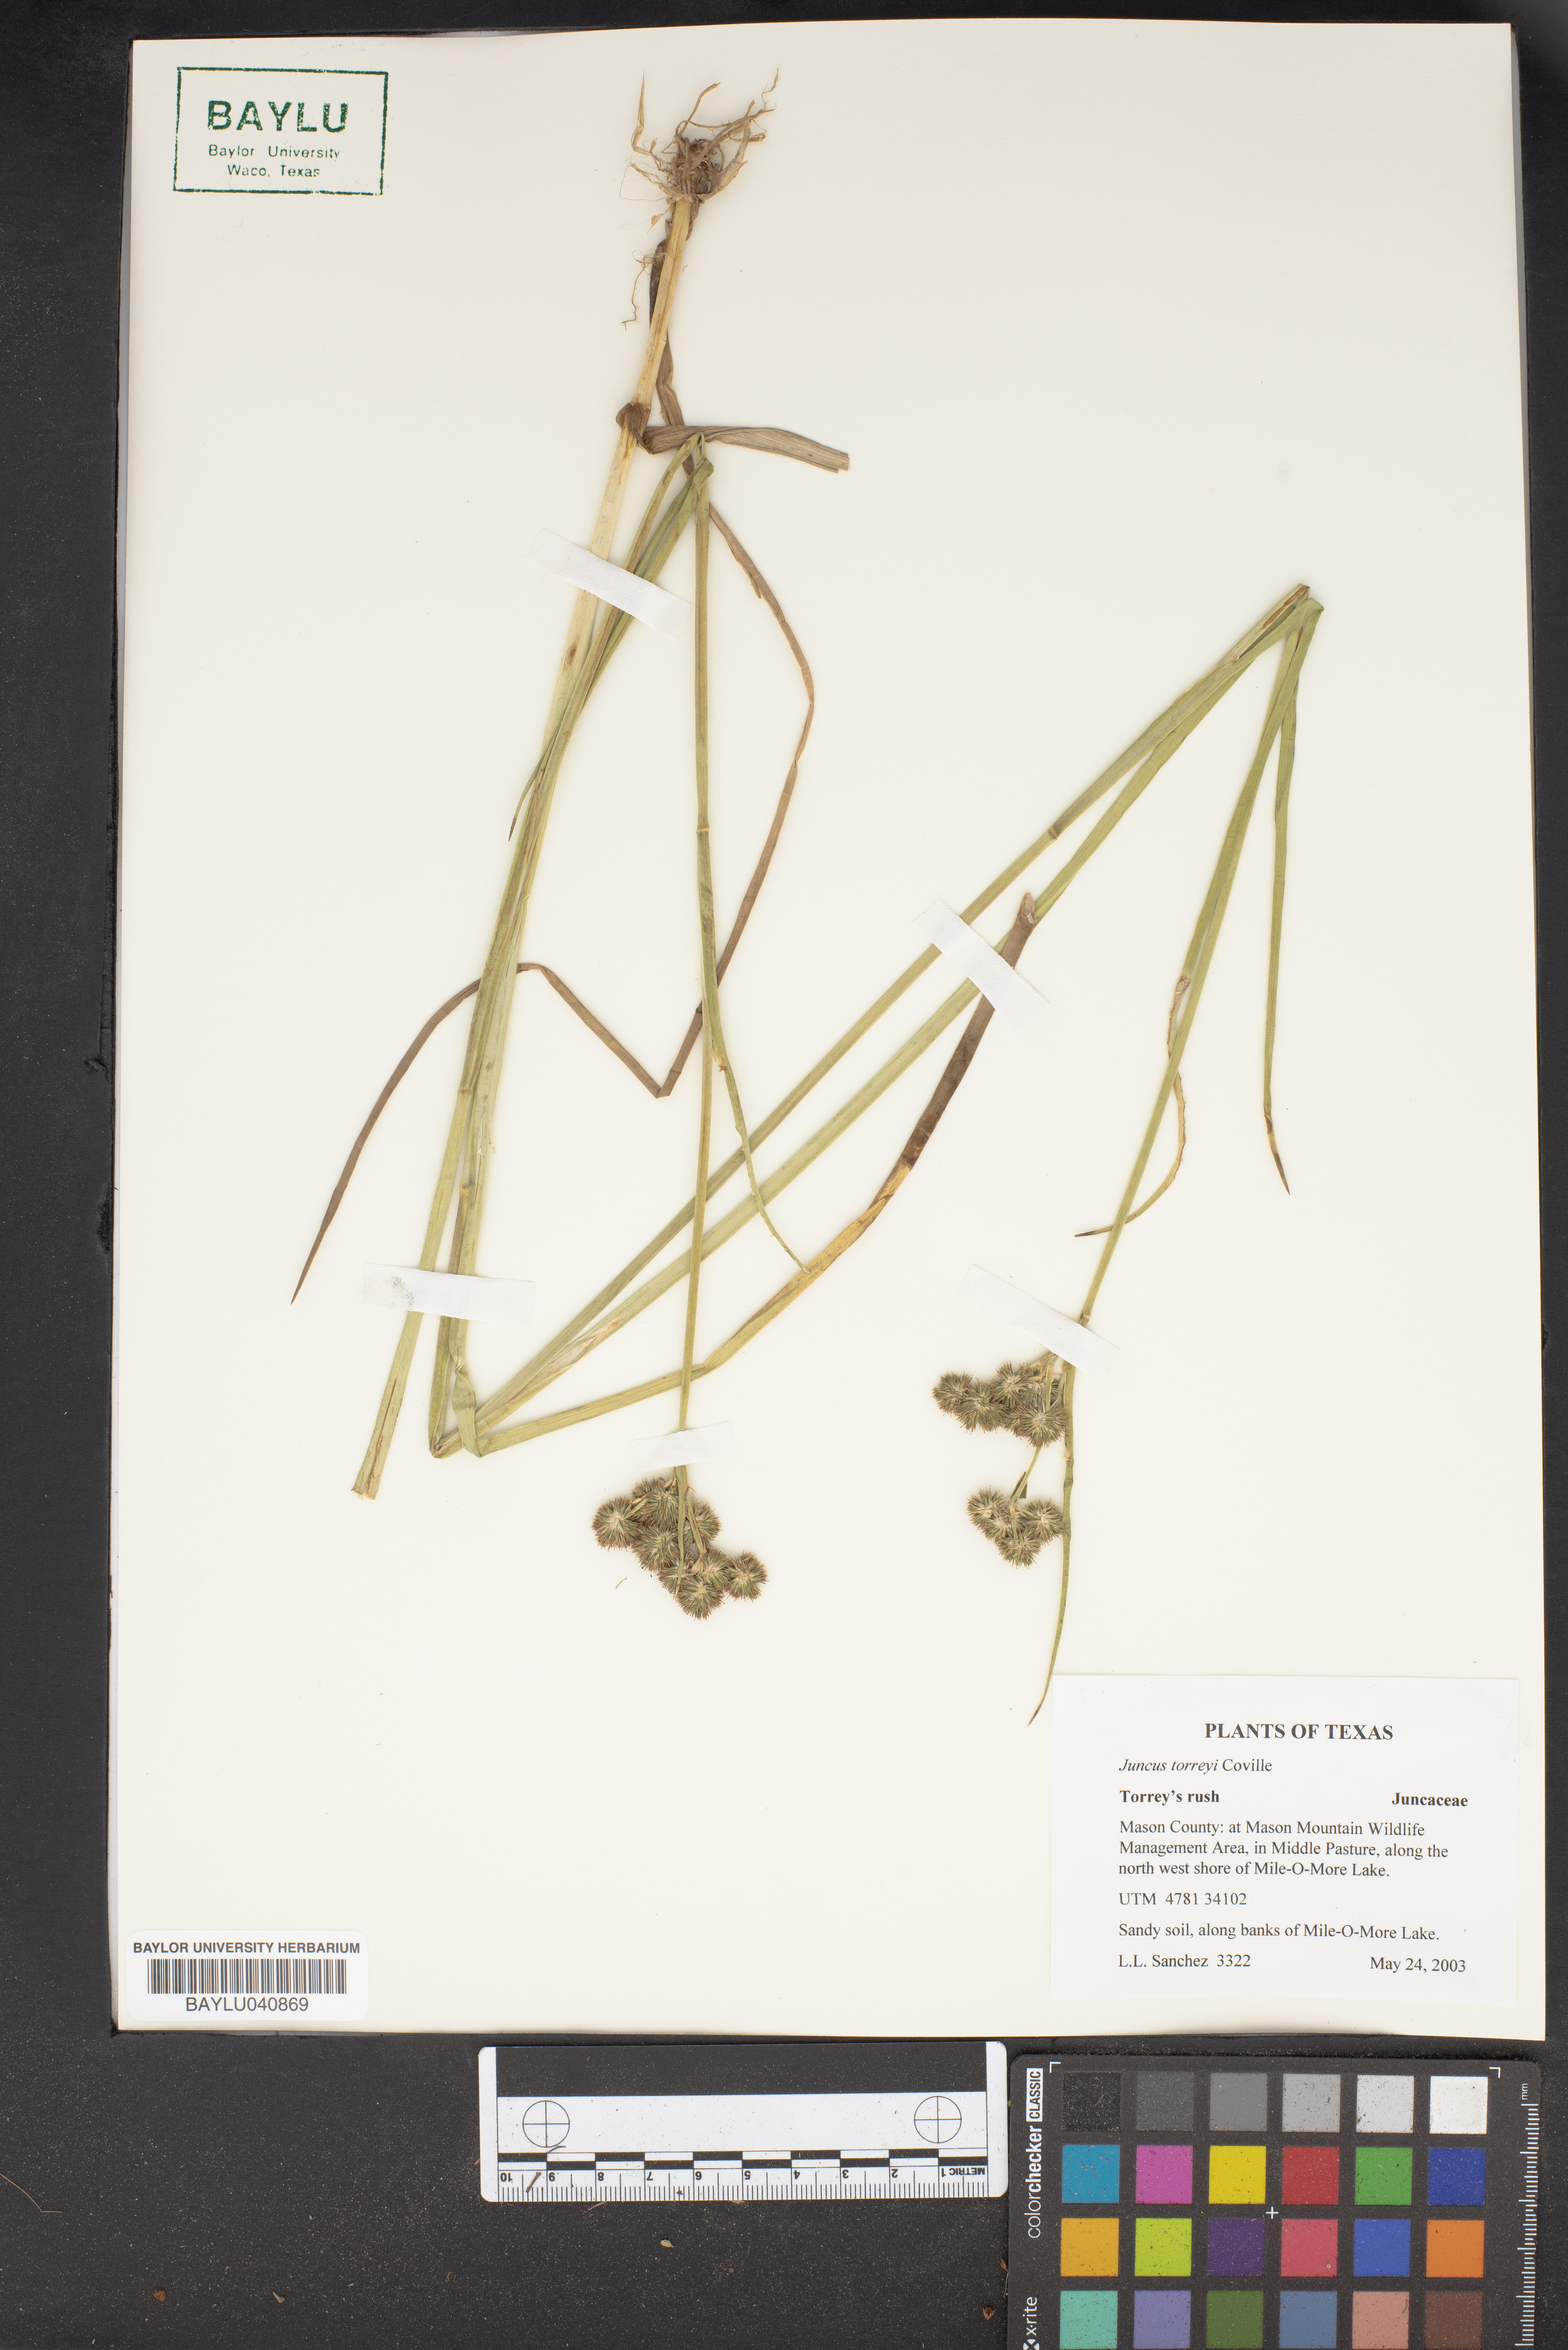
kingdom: Plantae
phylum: Tracheophyta
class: Liliopsida
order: Poales
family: Juncaceae
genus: Juncus
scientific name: Juncus torreyi
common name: Torrey's rush
